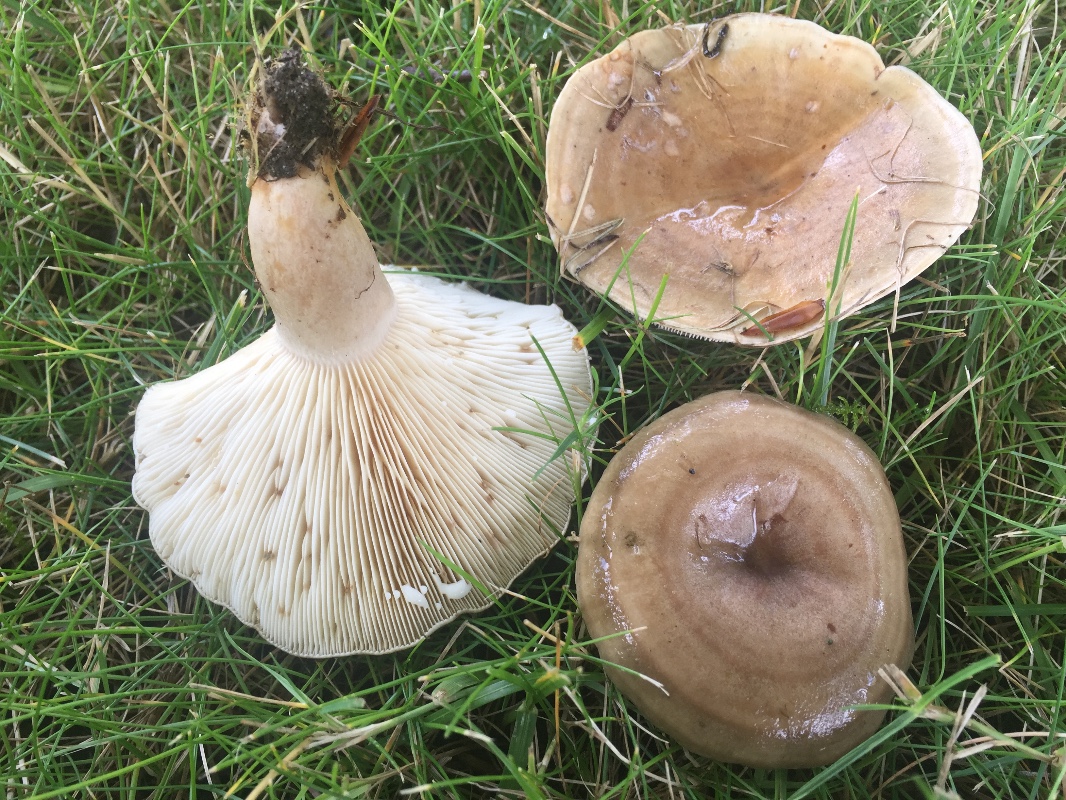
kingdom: Fungi
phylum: Basidiomycota
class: Agaricomycetes
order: Russulales
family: Russulaceae
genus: Lactarius
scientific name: Lactarius fluens
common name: lysrandet mælkehat
